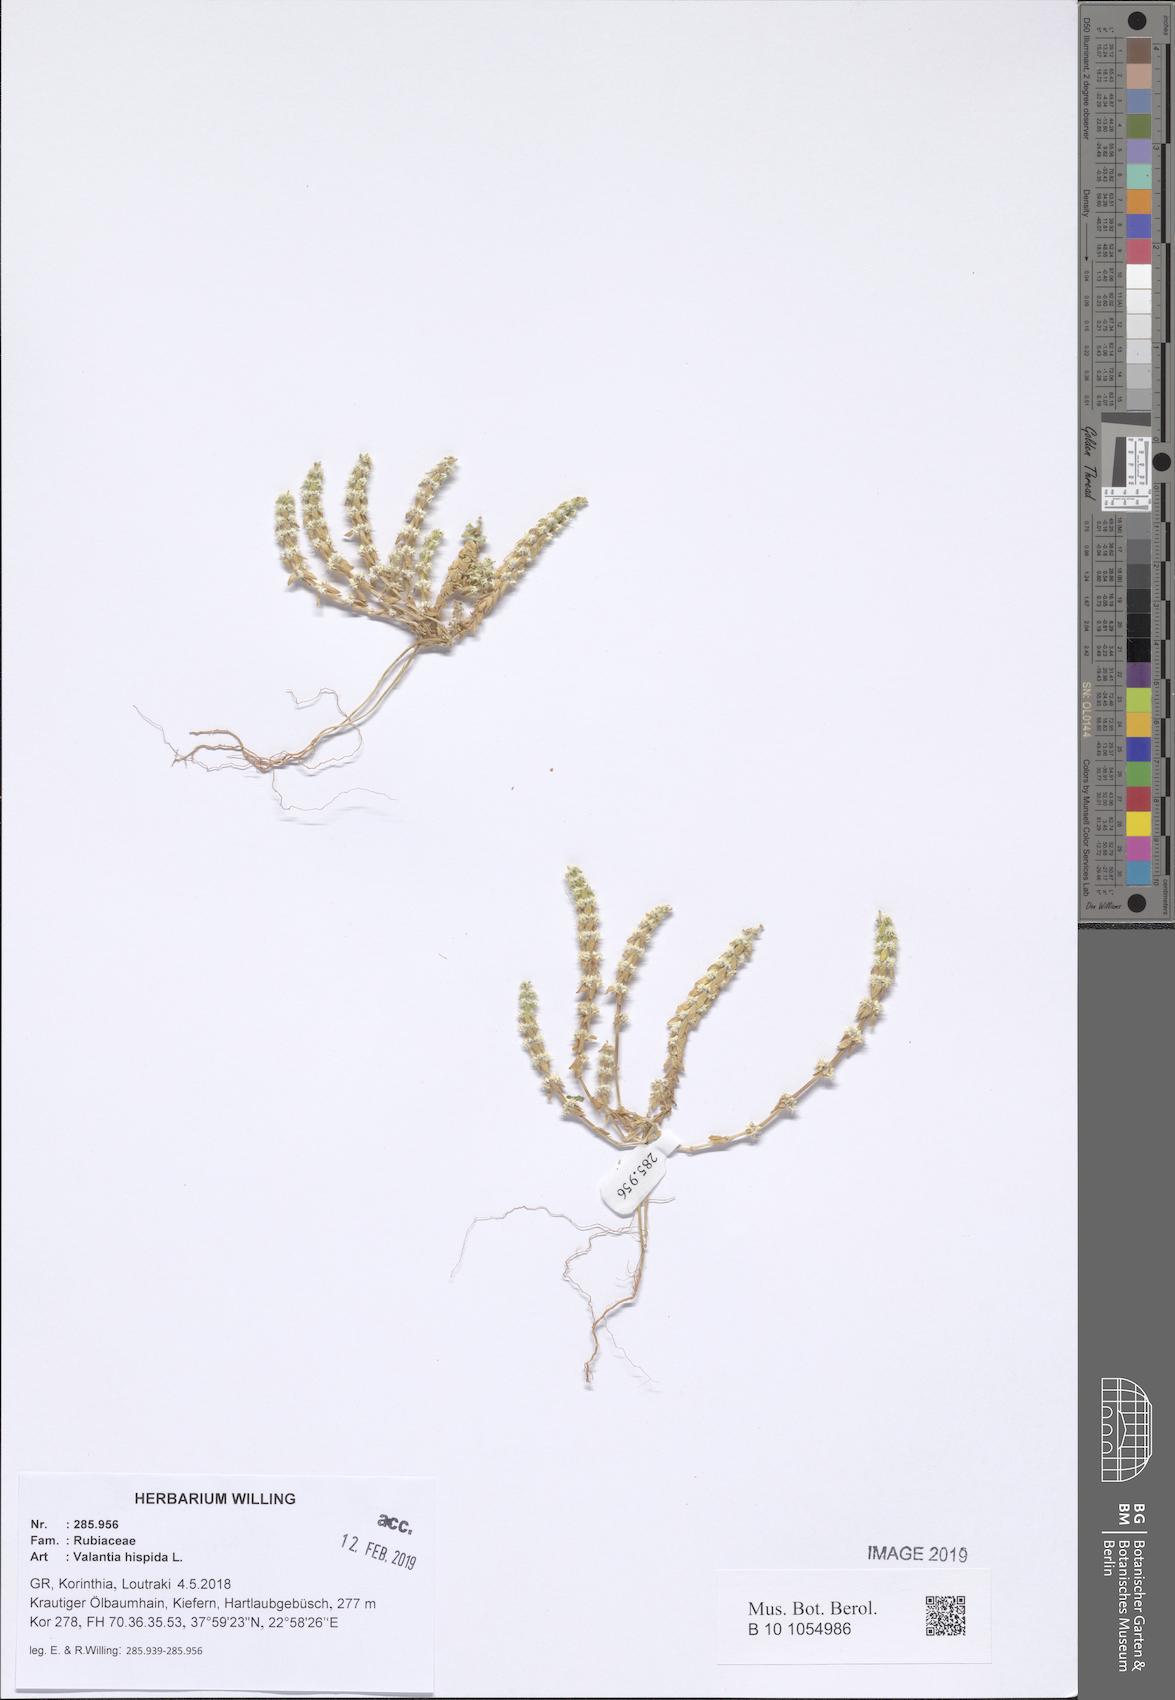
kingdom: Plantae
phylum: Tracheophyta
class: Magnoliopsida
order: Gentianales
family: Rubiaceae
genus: Valantia
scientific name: Valantia hispida
